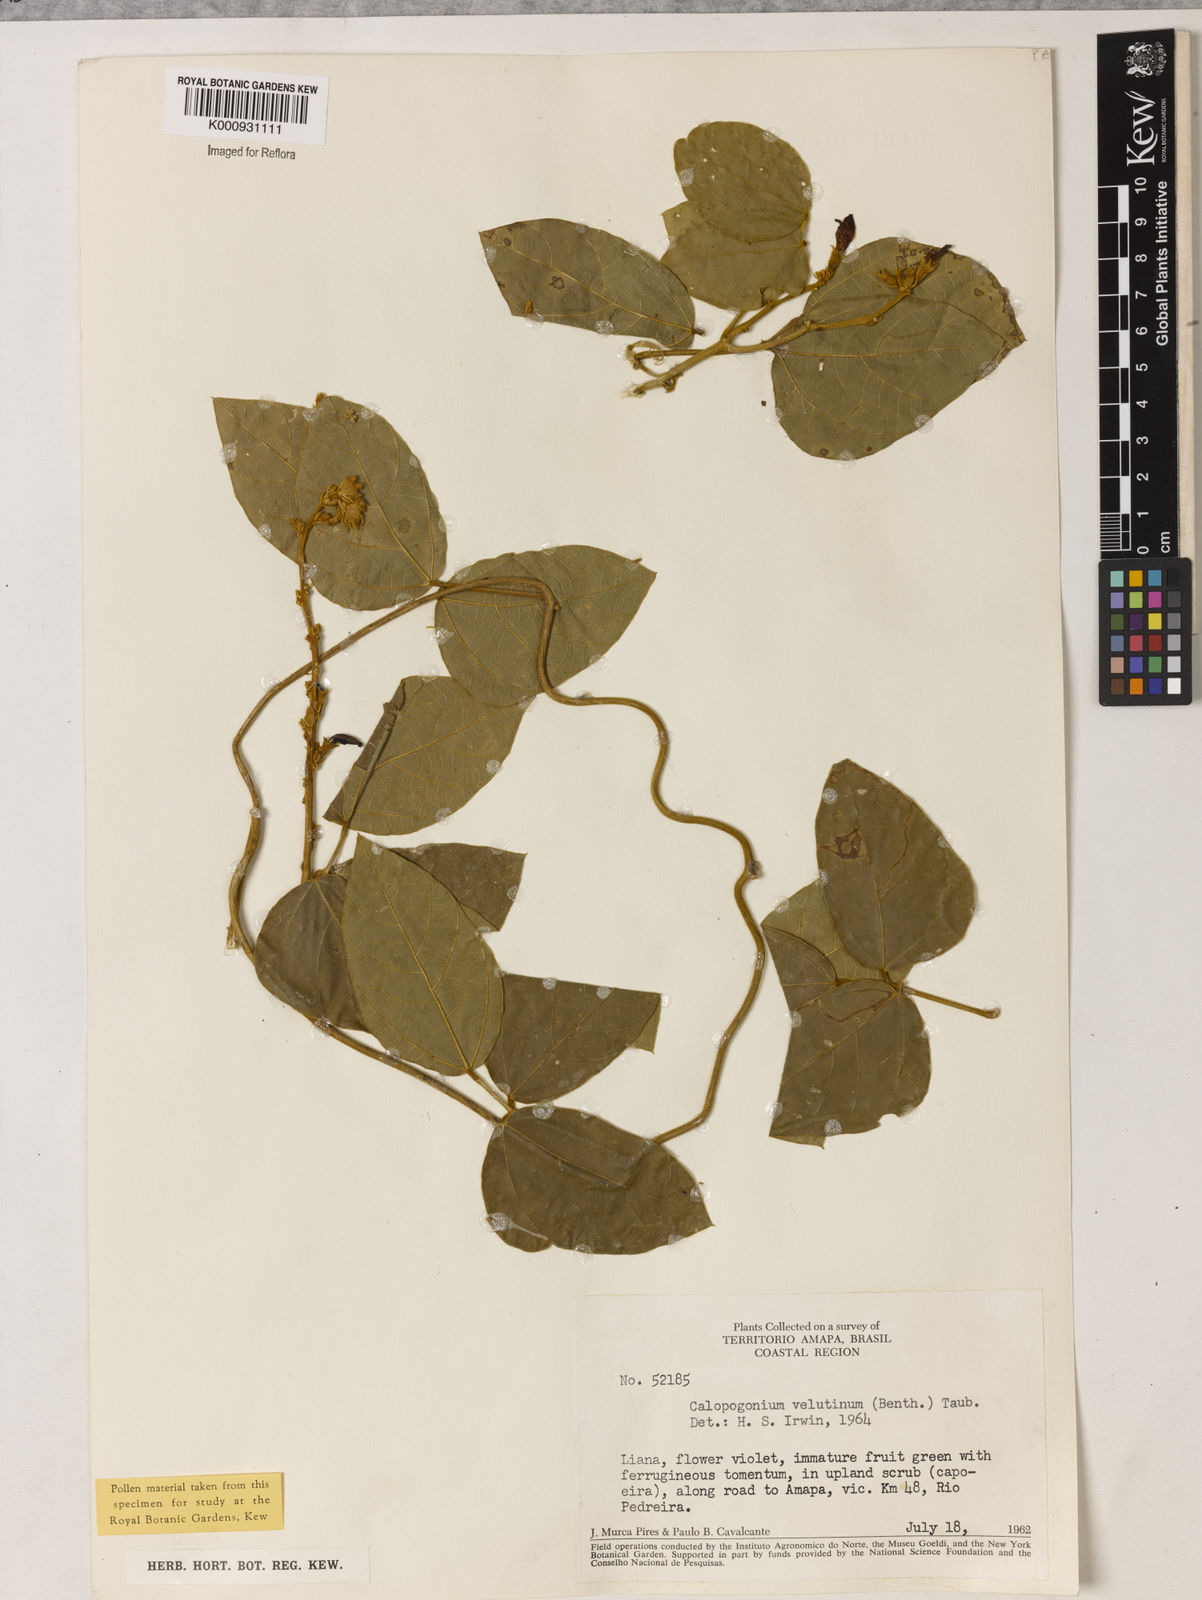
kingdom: Plantae
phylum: Tracheophyta
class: Magnoliopsida
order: Fabales
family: Fabaceae
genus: Calopogonium
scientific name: Calopogonium velutinum
